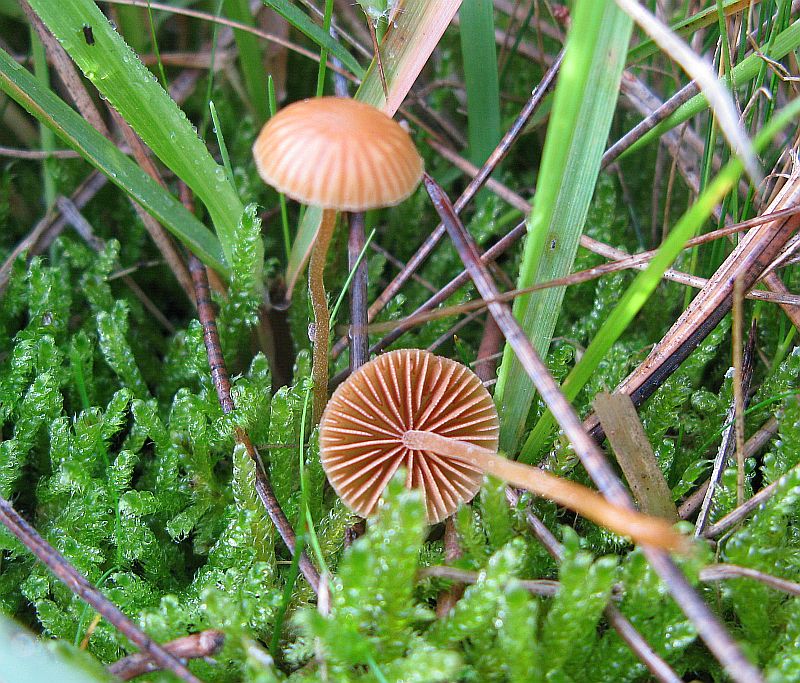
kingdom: Fungi
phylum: Basidiomycota
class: Agaricomycetes
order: Agaricales
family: Hymenogastraceae
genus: Galerina
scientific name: Galerina vittiformis
